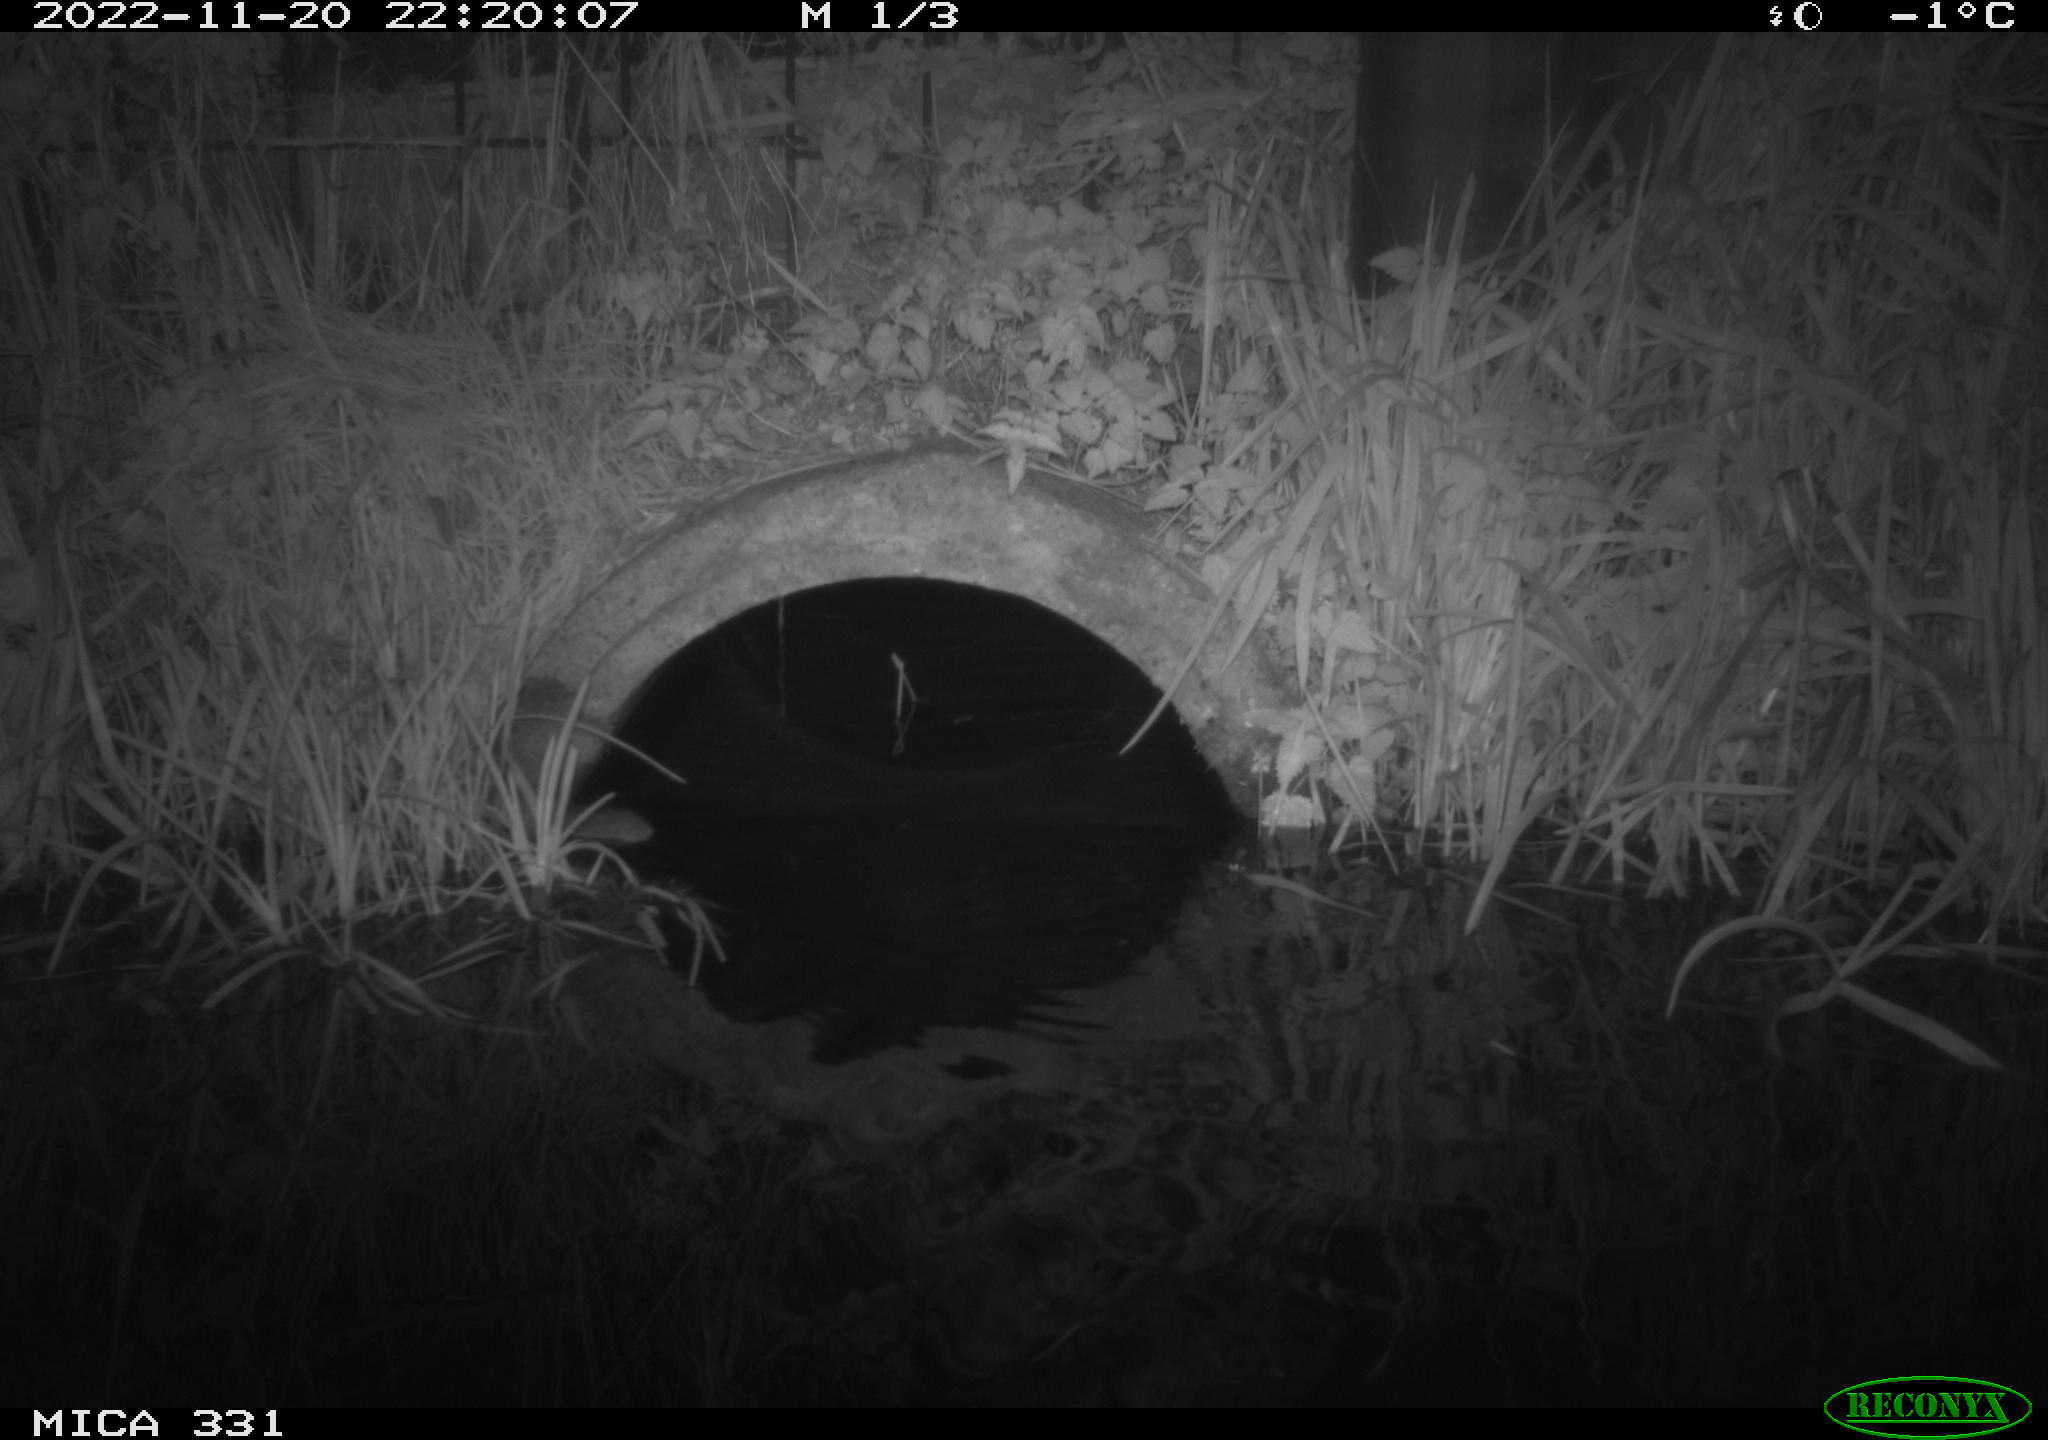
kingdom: Animalia
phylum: Chordata
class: Mammalia
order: Rodentia
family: Muridae
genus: Rattus
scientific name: Rattus norvegicus
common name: Brown rat
